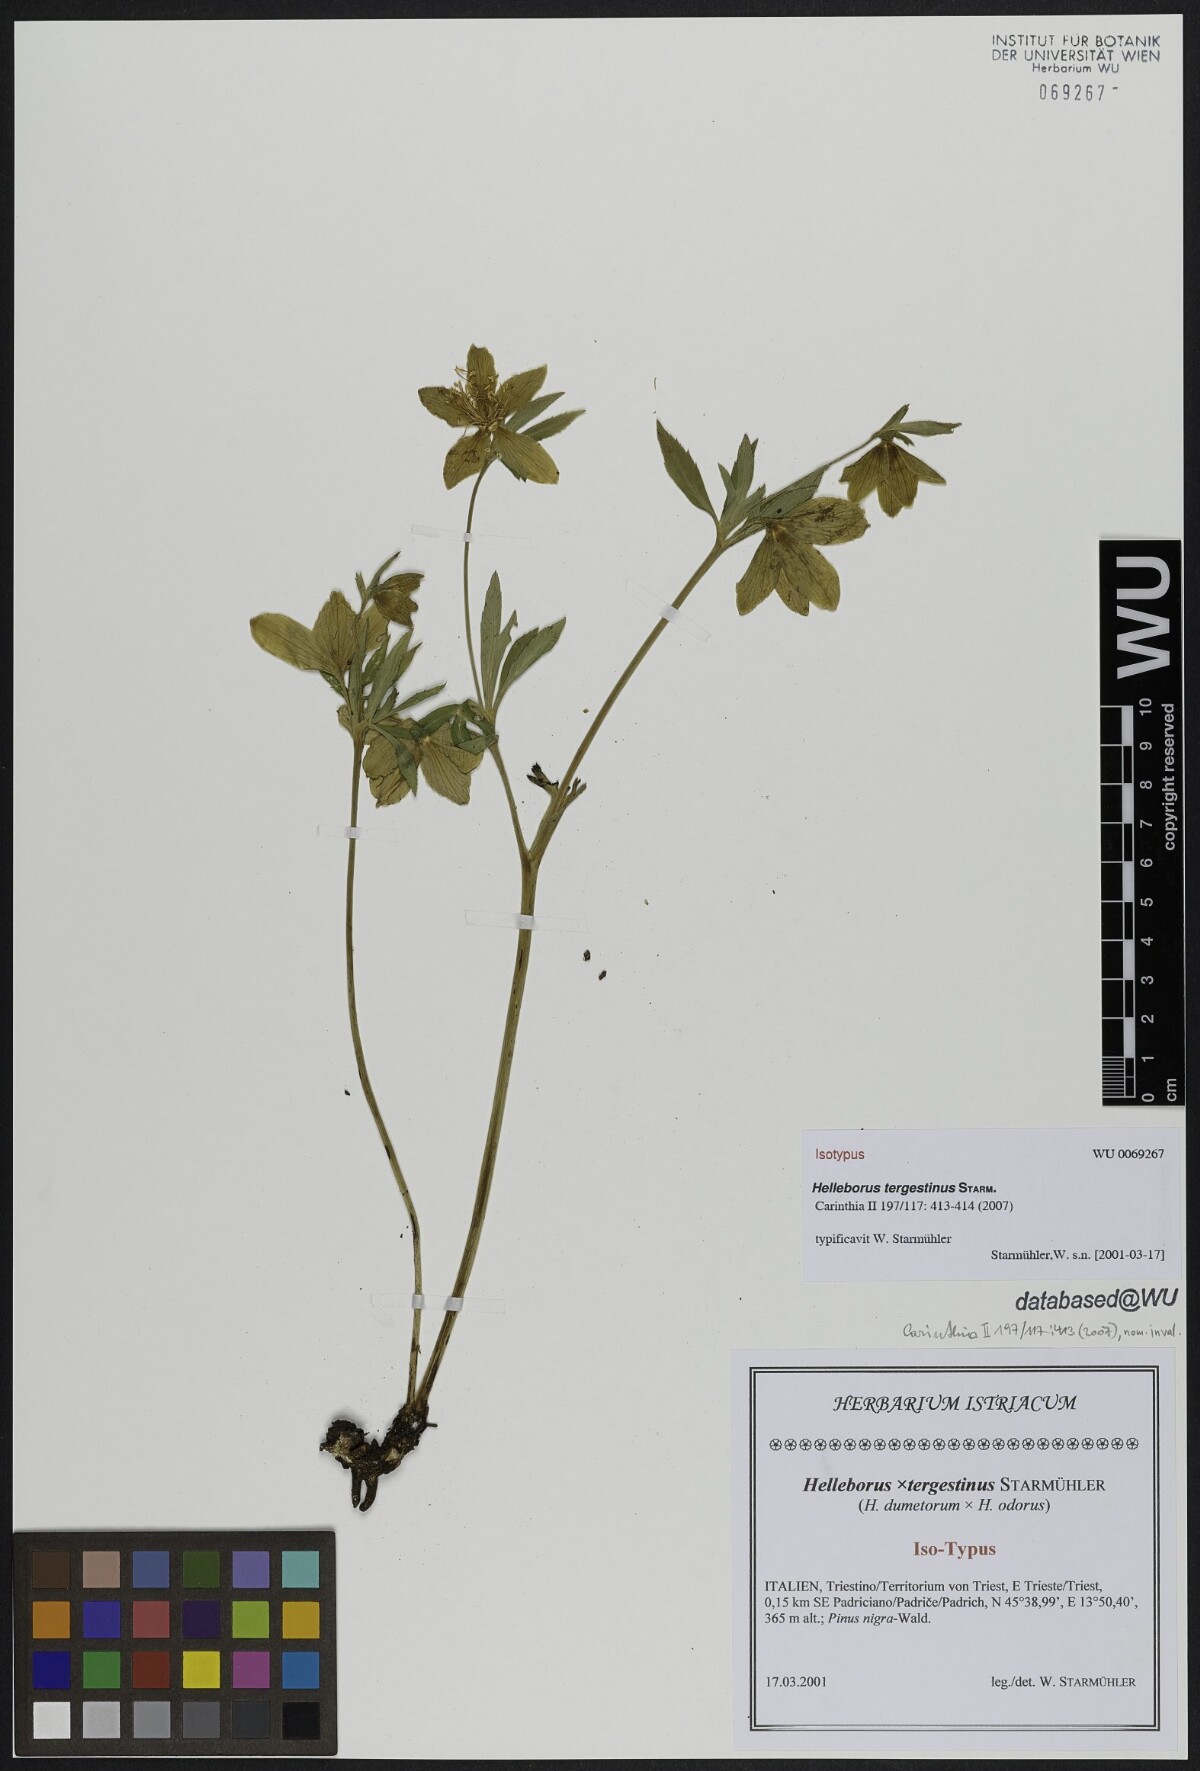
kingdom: Plantae
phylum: Tracheophyta
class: Magnoliopsida
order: Ranunculales
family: Ranunculaceae
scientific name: Ranunculaceae
